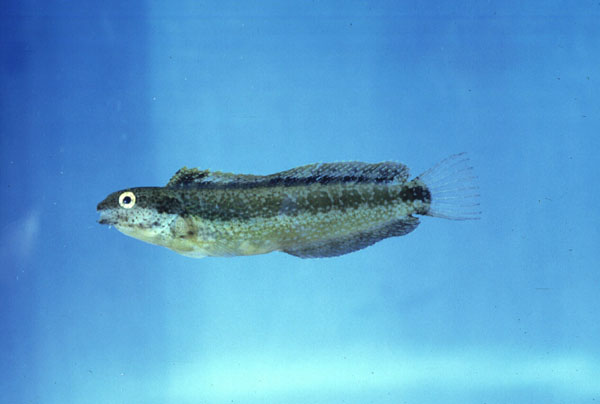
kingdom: Animalia
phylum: Chordata
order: Perciformes
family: Blenniidae
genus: Petroscirtes
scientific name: Petroscirtes breviceps
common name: Short-head sabretooth blenny
